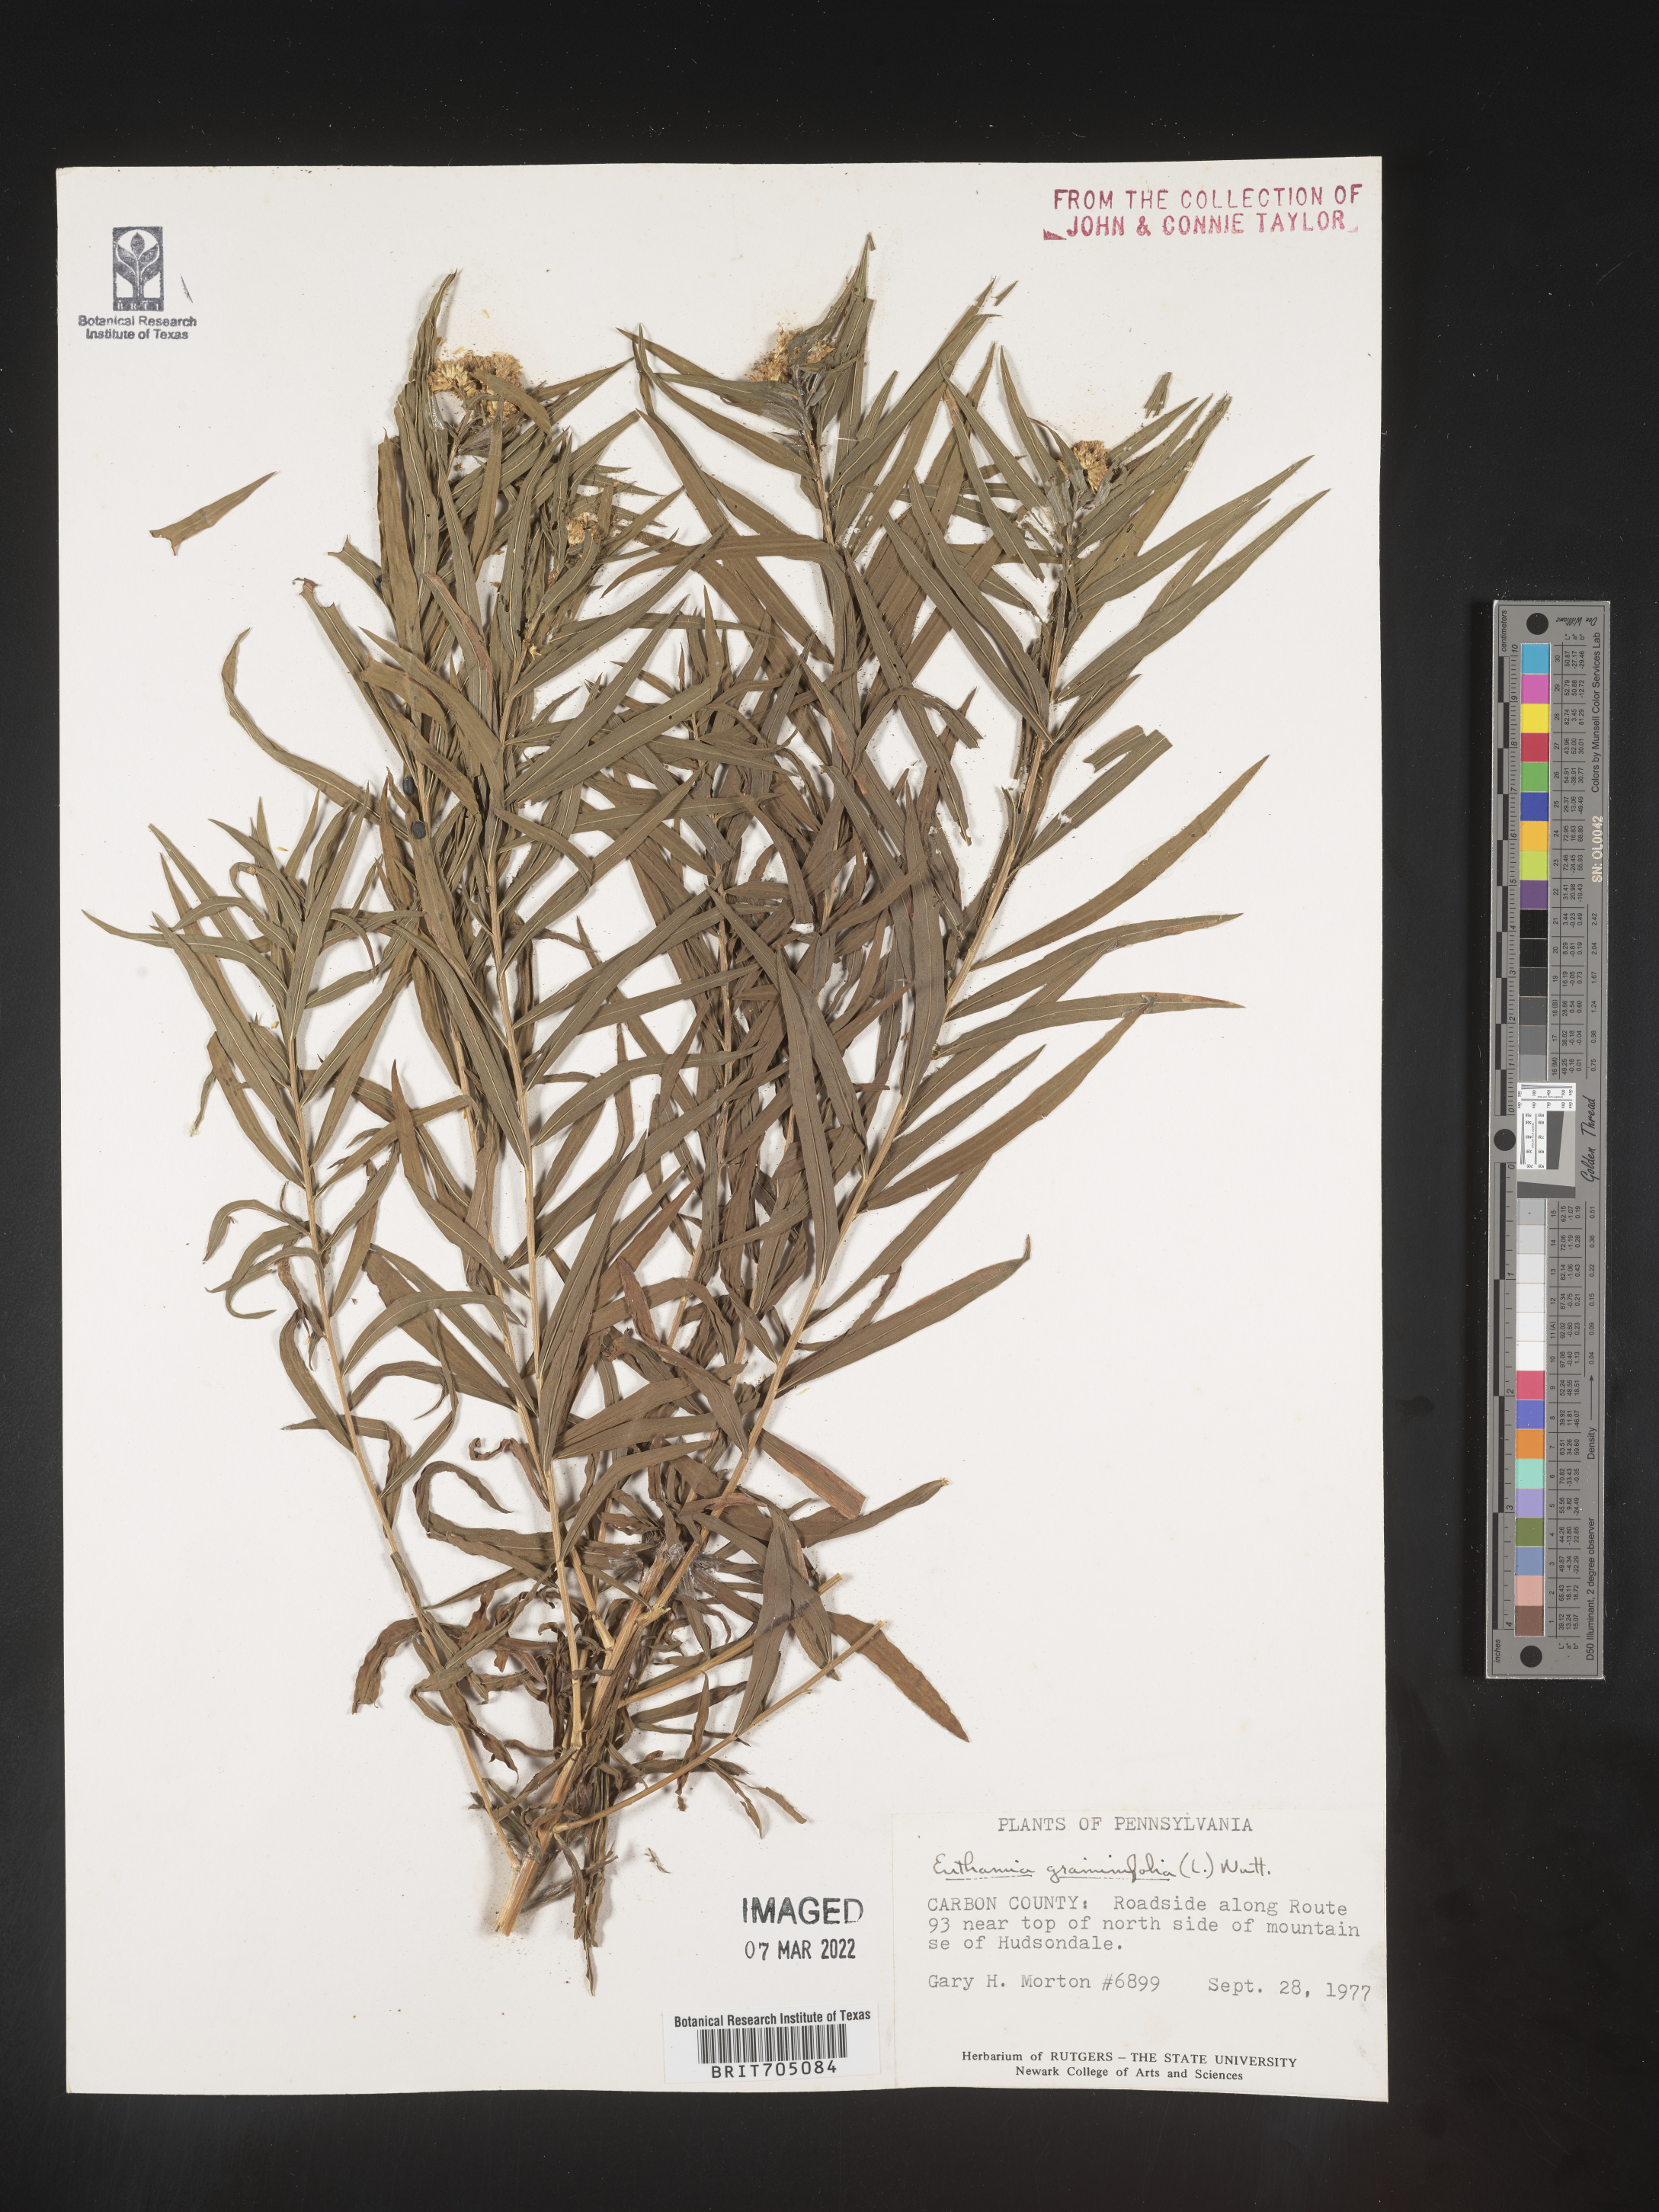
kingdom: Plantae
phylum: Tracheophyta
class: Magnoliopsida
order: Asterales
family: Asteraceae
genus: Euthamia
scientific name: Euthamia graminifolia
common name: Common goldentop
